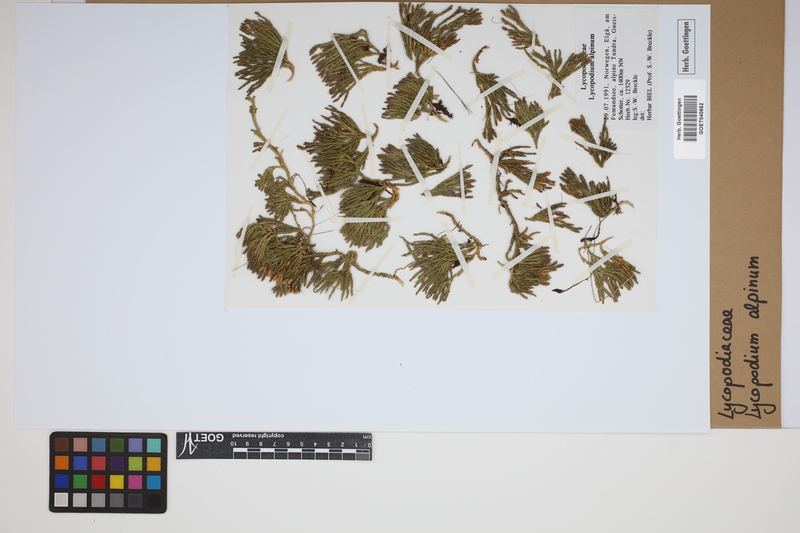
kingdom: Plantae
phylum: Tracheophyta
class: Lycopodiopsida
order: Lycopodiales
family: Lycopodiaceae
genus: Diphasiastrum
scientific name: Diphasiastrum alpinum
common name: Alpine clubmoss
